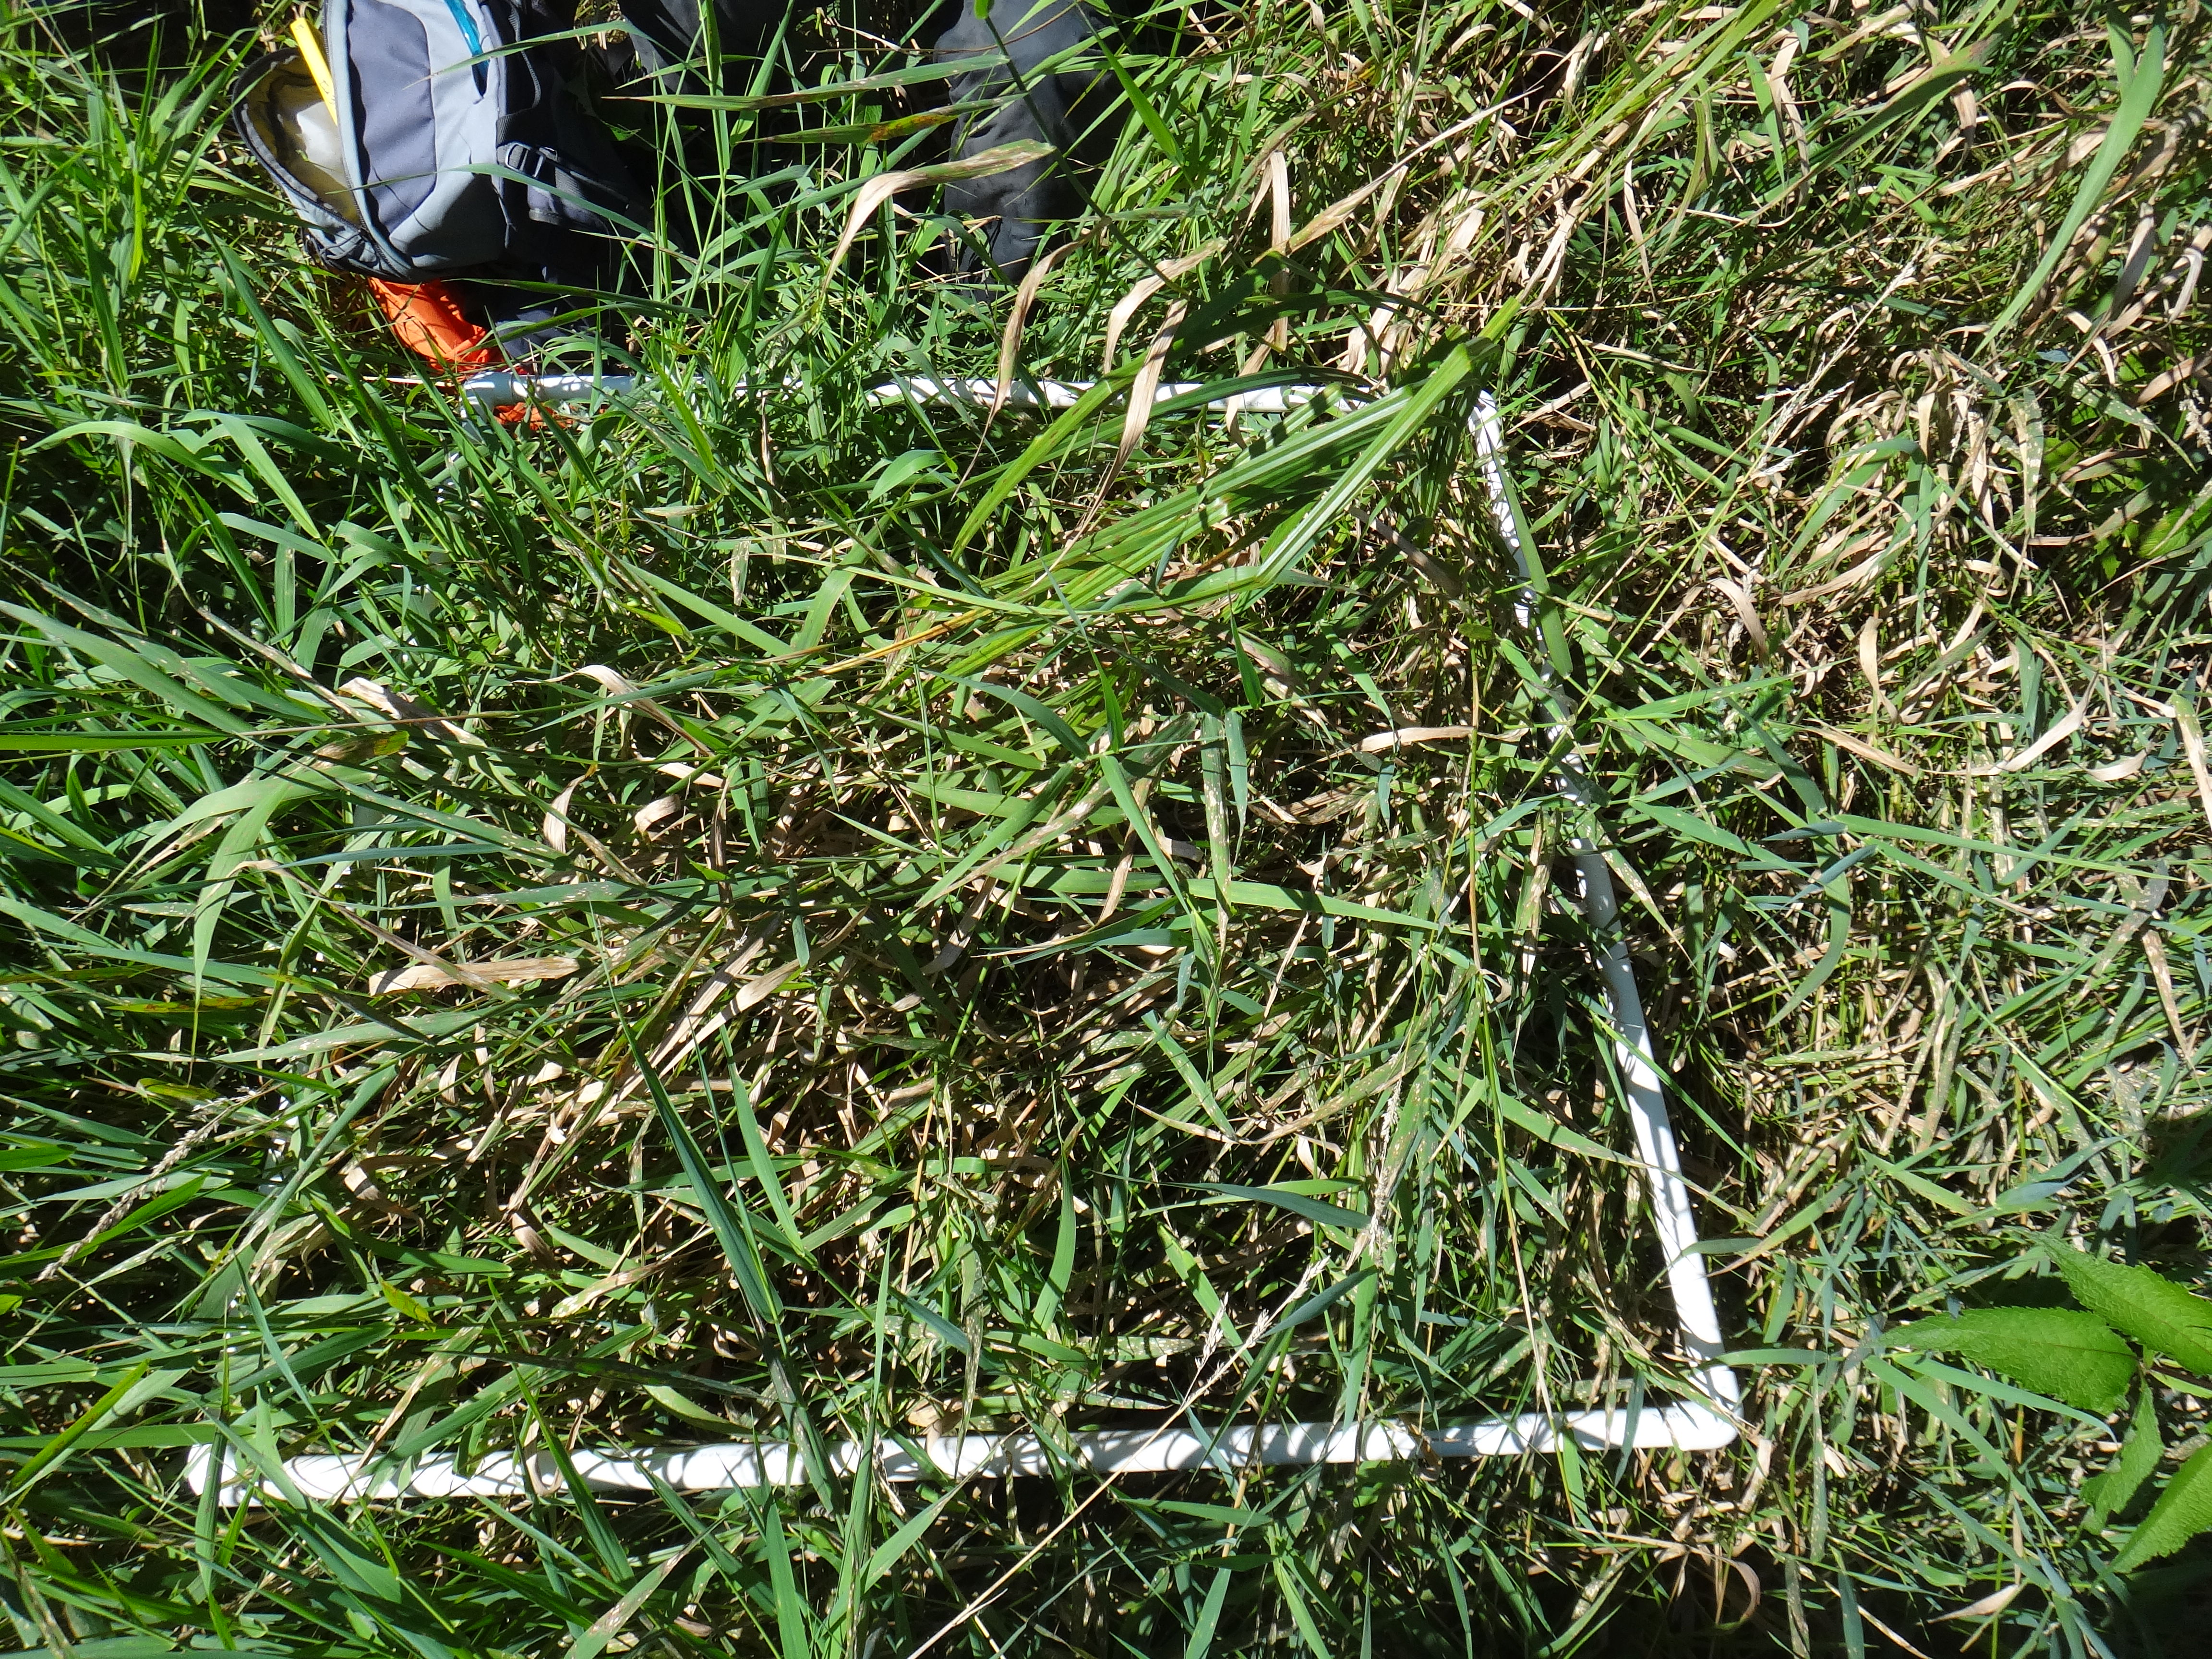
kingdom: Plantae
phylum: Tracheophyta
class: Magnoliopsida
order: Asterales
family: Asteraceae
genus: Cirsium
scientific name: Cirsium arvense
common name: Creeping thistle
